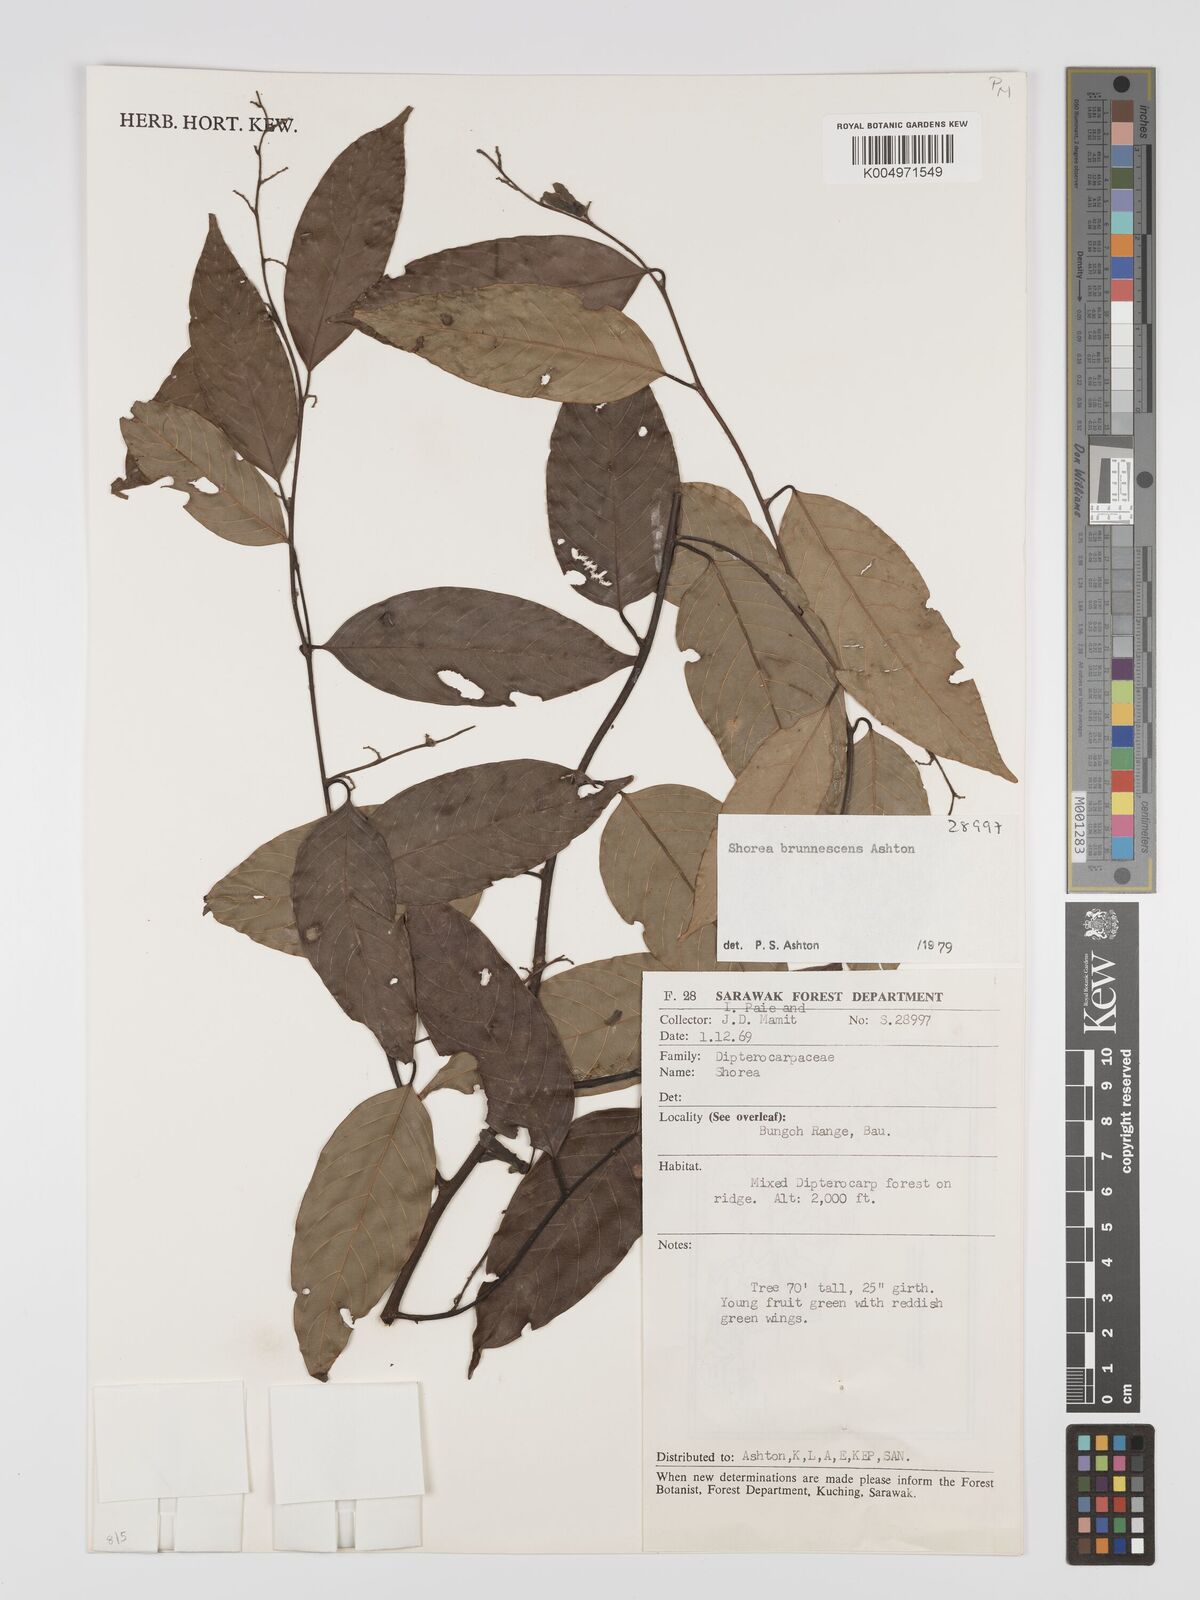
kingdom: Plantae
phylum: Tracheophyta
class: Magnoliopsida
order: Malvales
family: Dipterocarpaceae
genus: Shorea
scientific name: Shorea brunnescens
